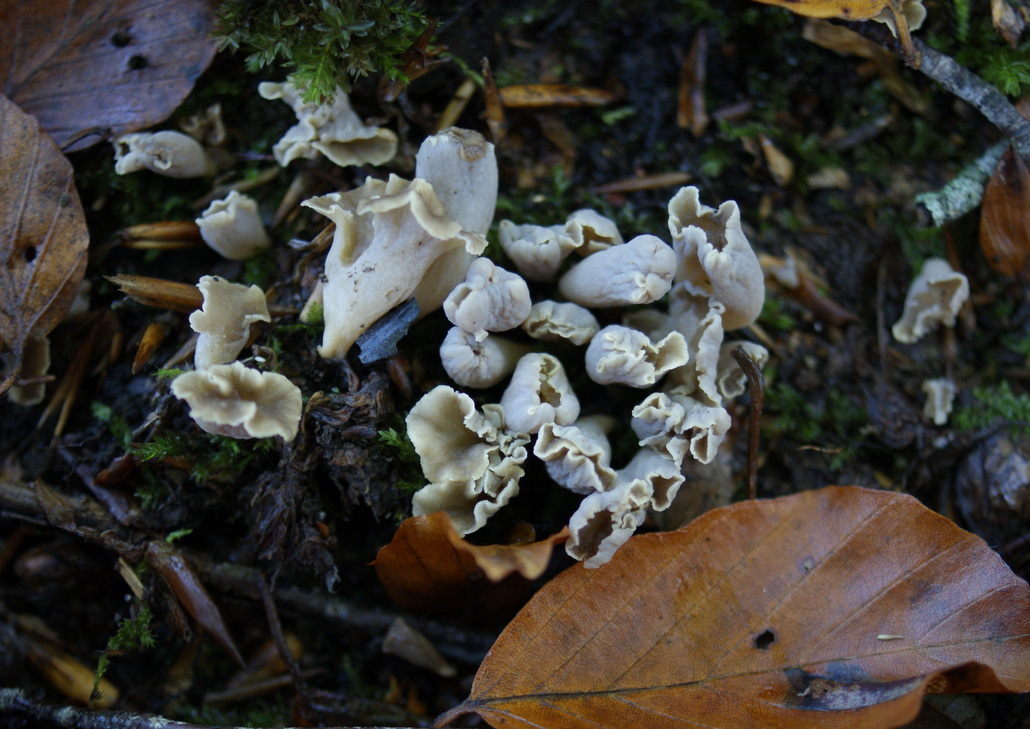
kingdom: Fungi
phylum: Basidiomycota
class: Agaricomycetes
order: Cantharellales
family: Hydnaceae
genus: Craterellus
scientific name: Craterellus undulatus
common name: liden kantarel
